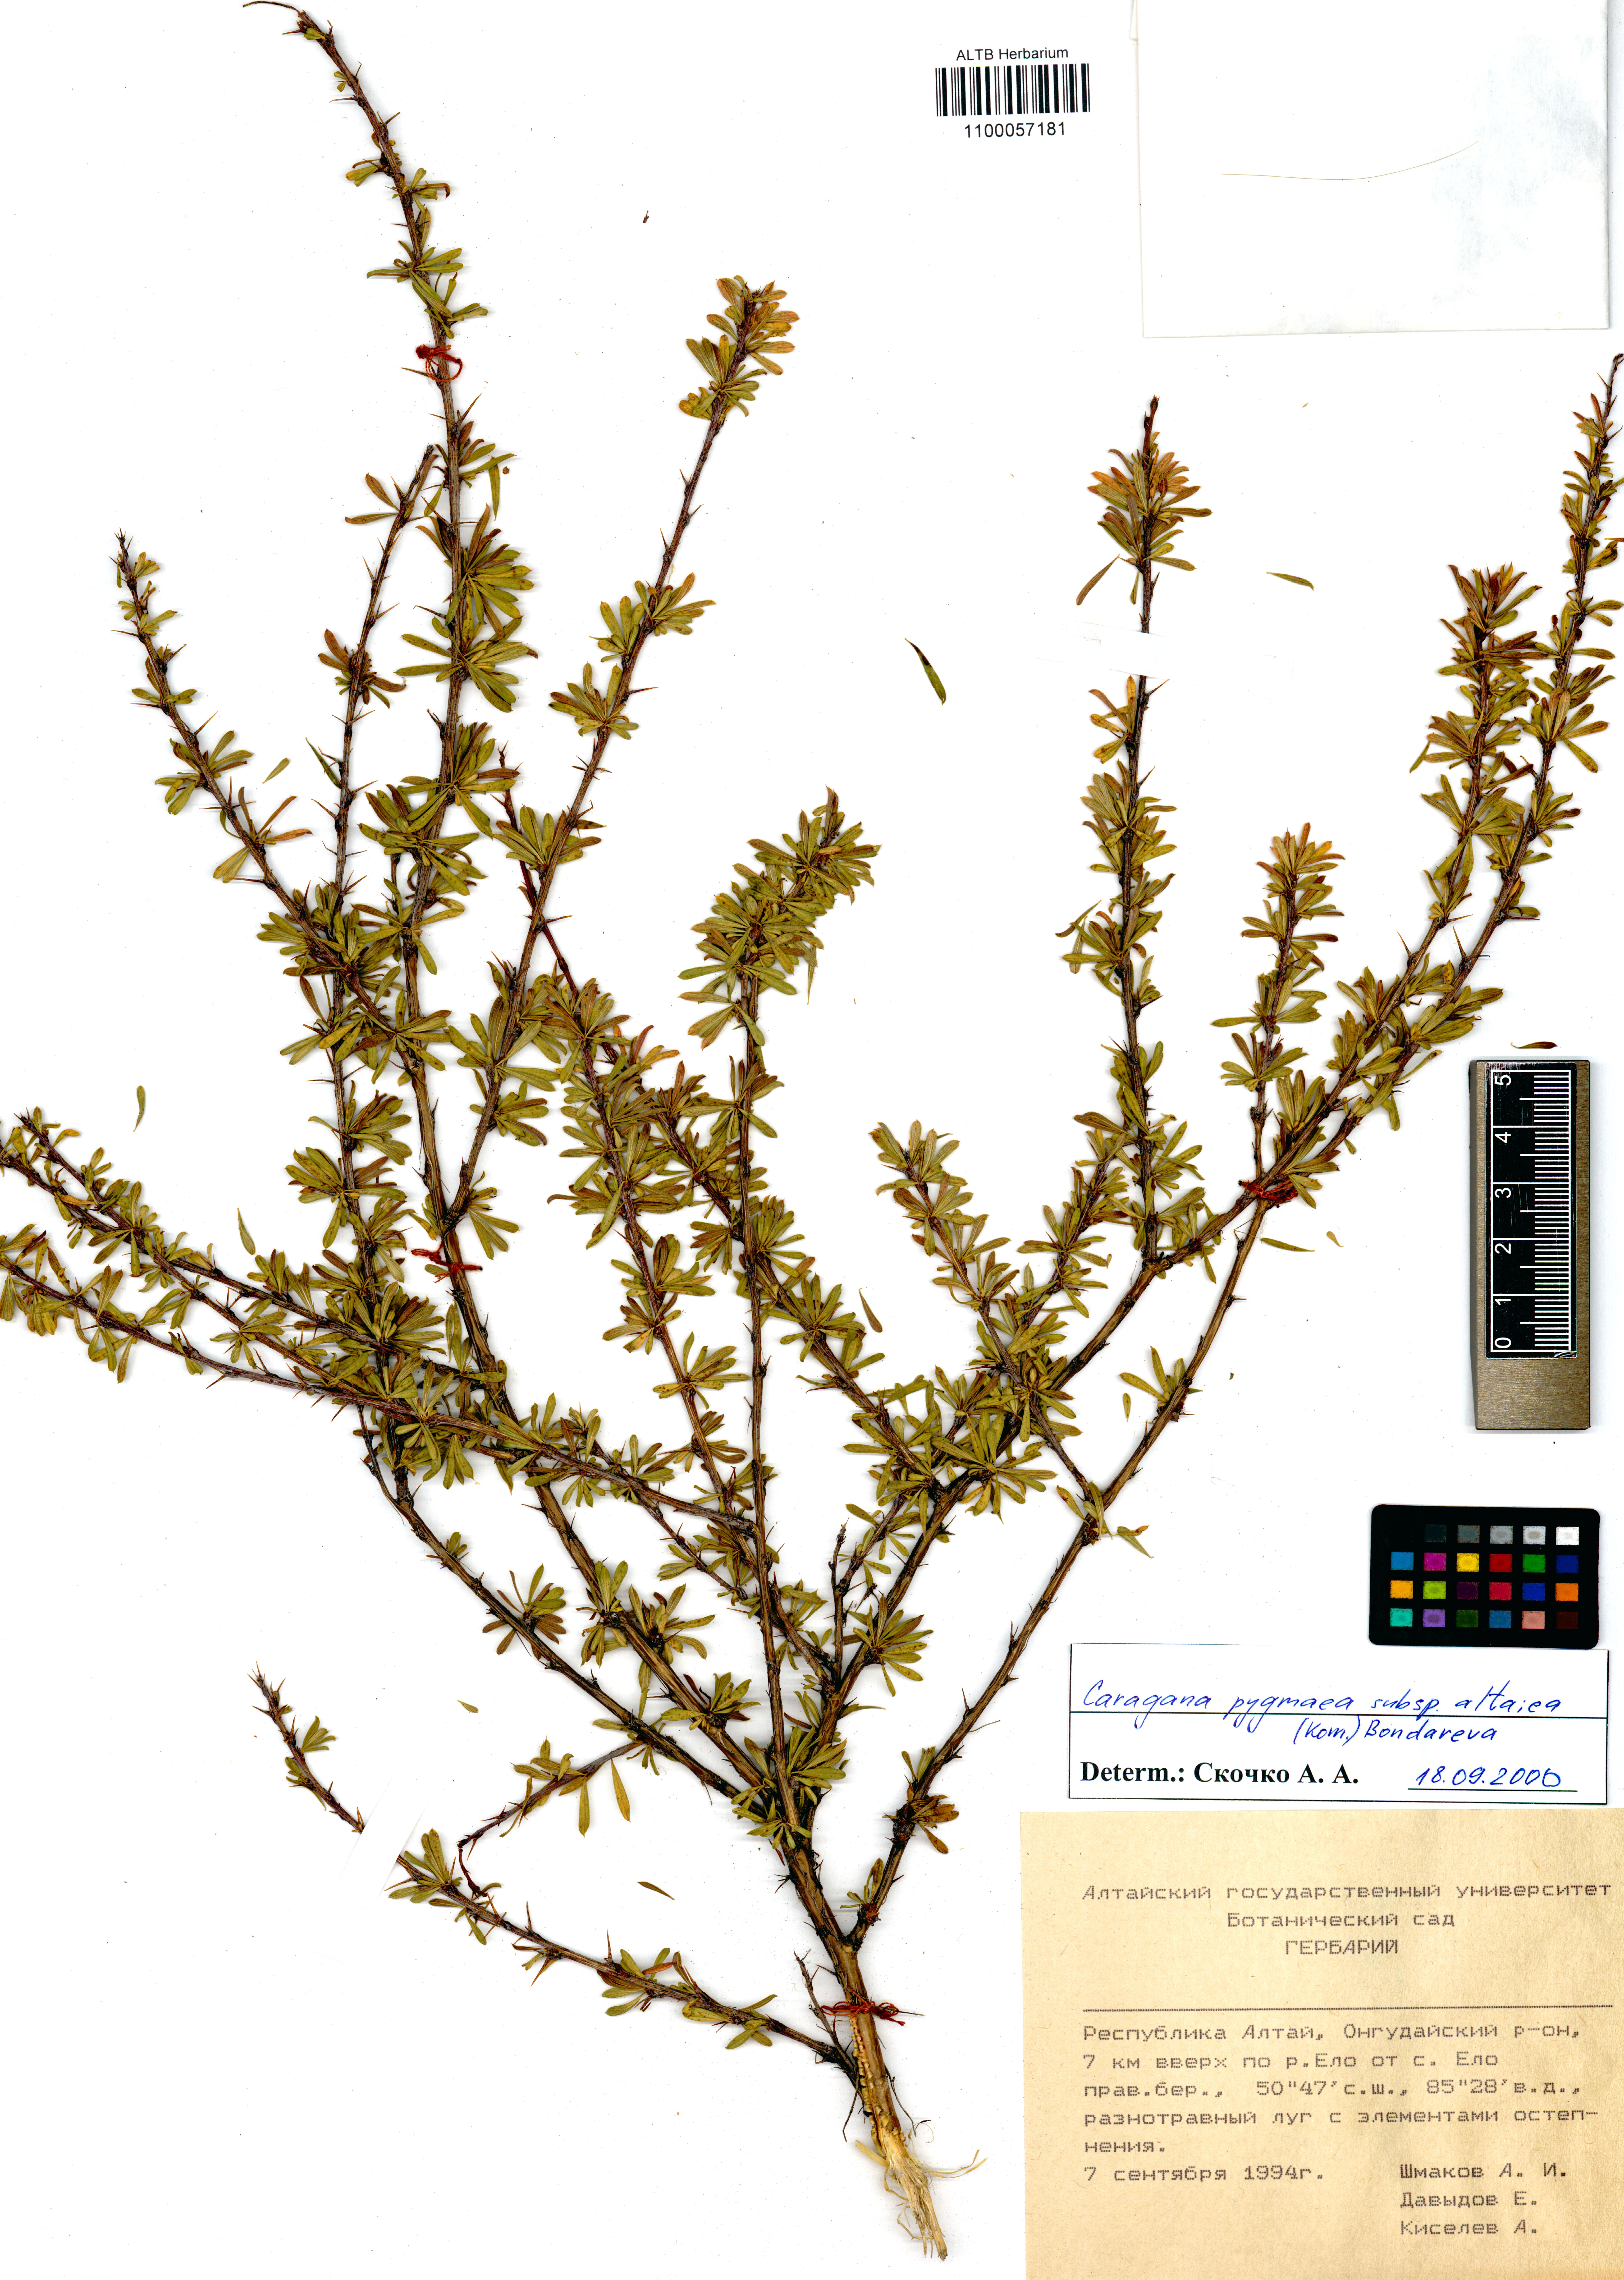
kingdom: Plantae
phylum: Tracheophyta
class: Magnoliopsida
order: Fabales
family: Fabaceae
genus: Caragana
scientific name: Caragana pygmaea
